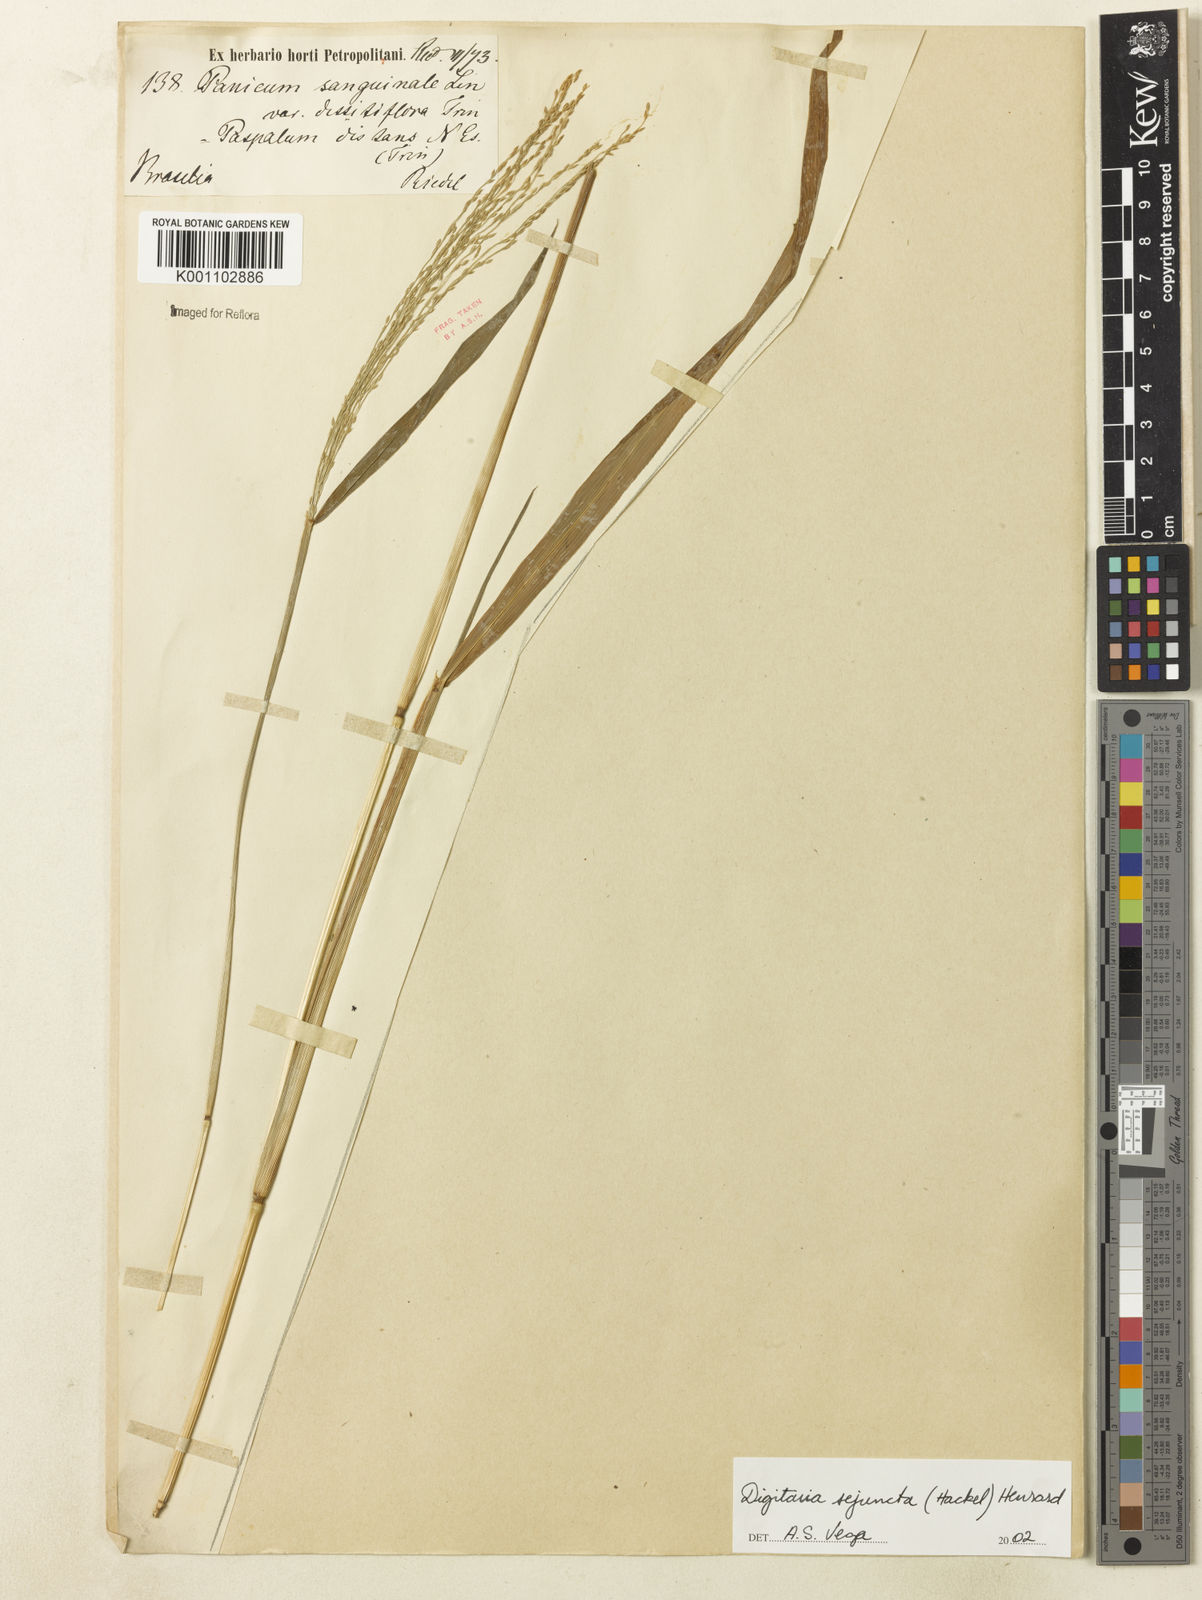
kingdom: Plantae
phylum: Tracheophyta
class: Liliopsida
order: Poales
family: Poaceae
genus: Digitaria
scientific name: Digitaria sejuncta
